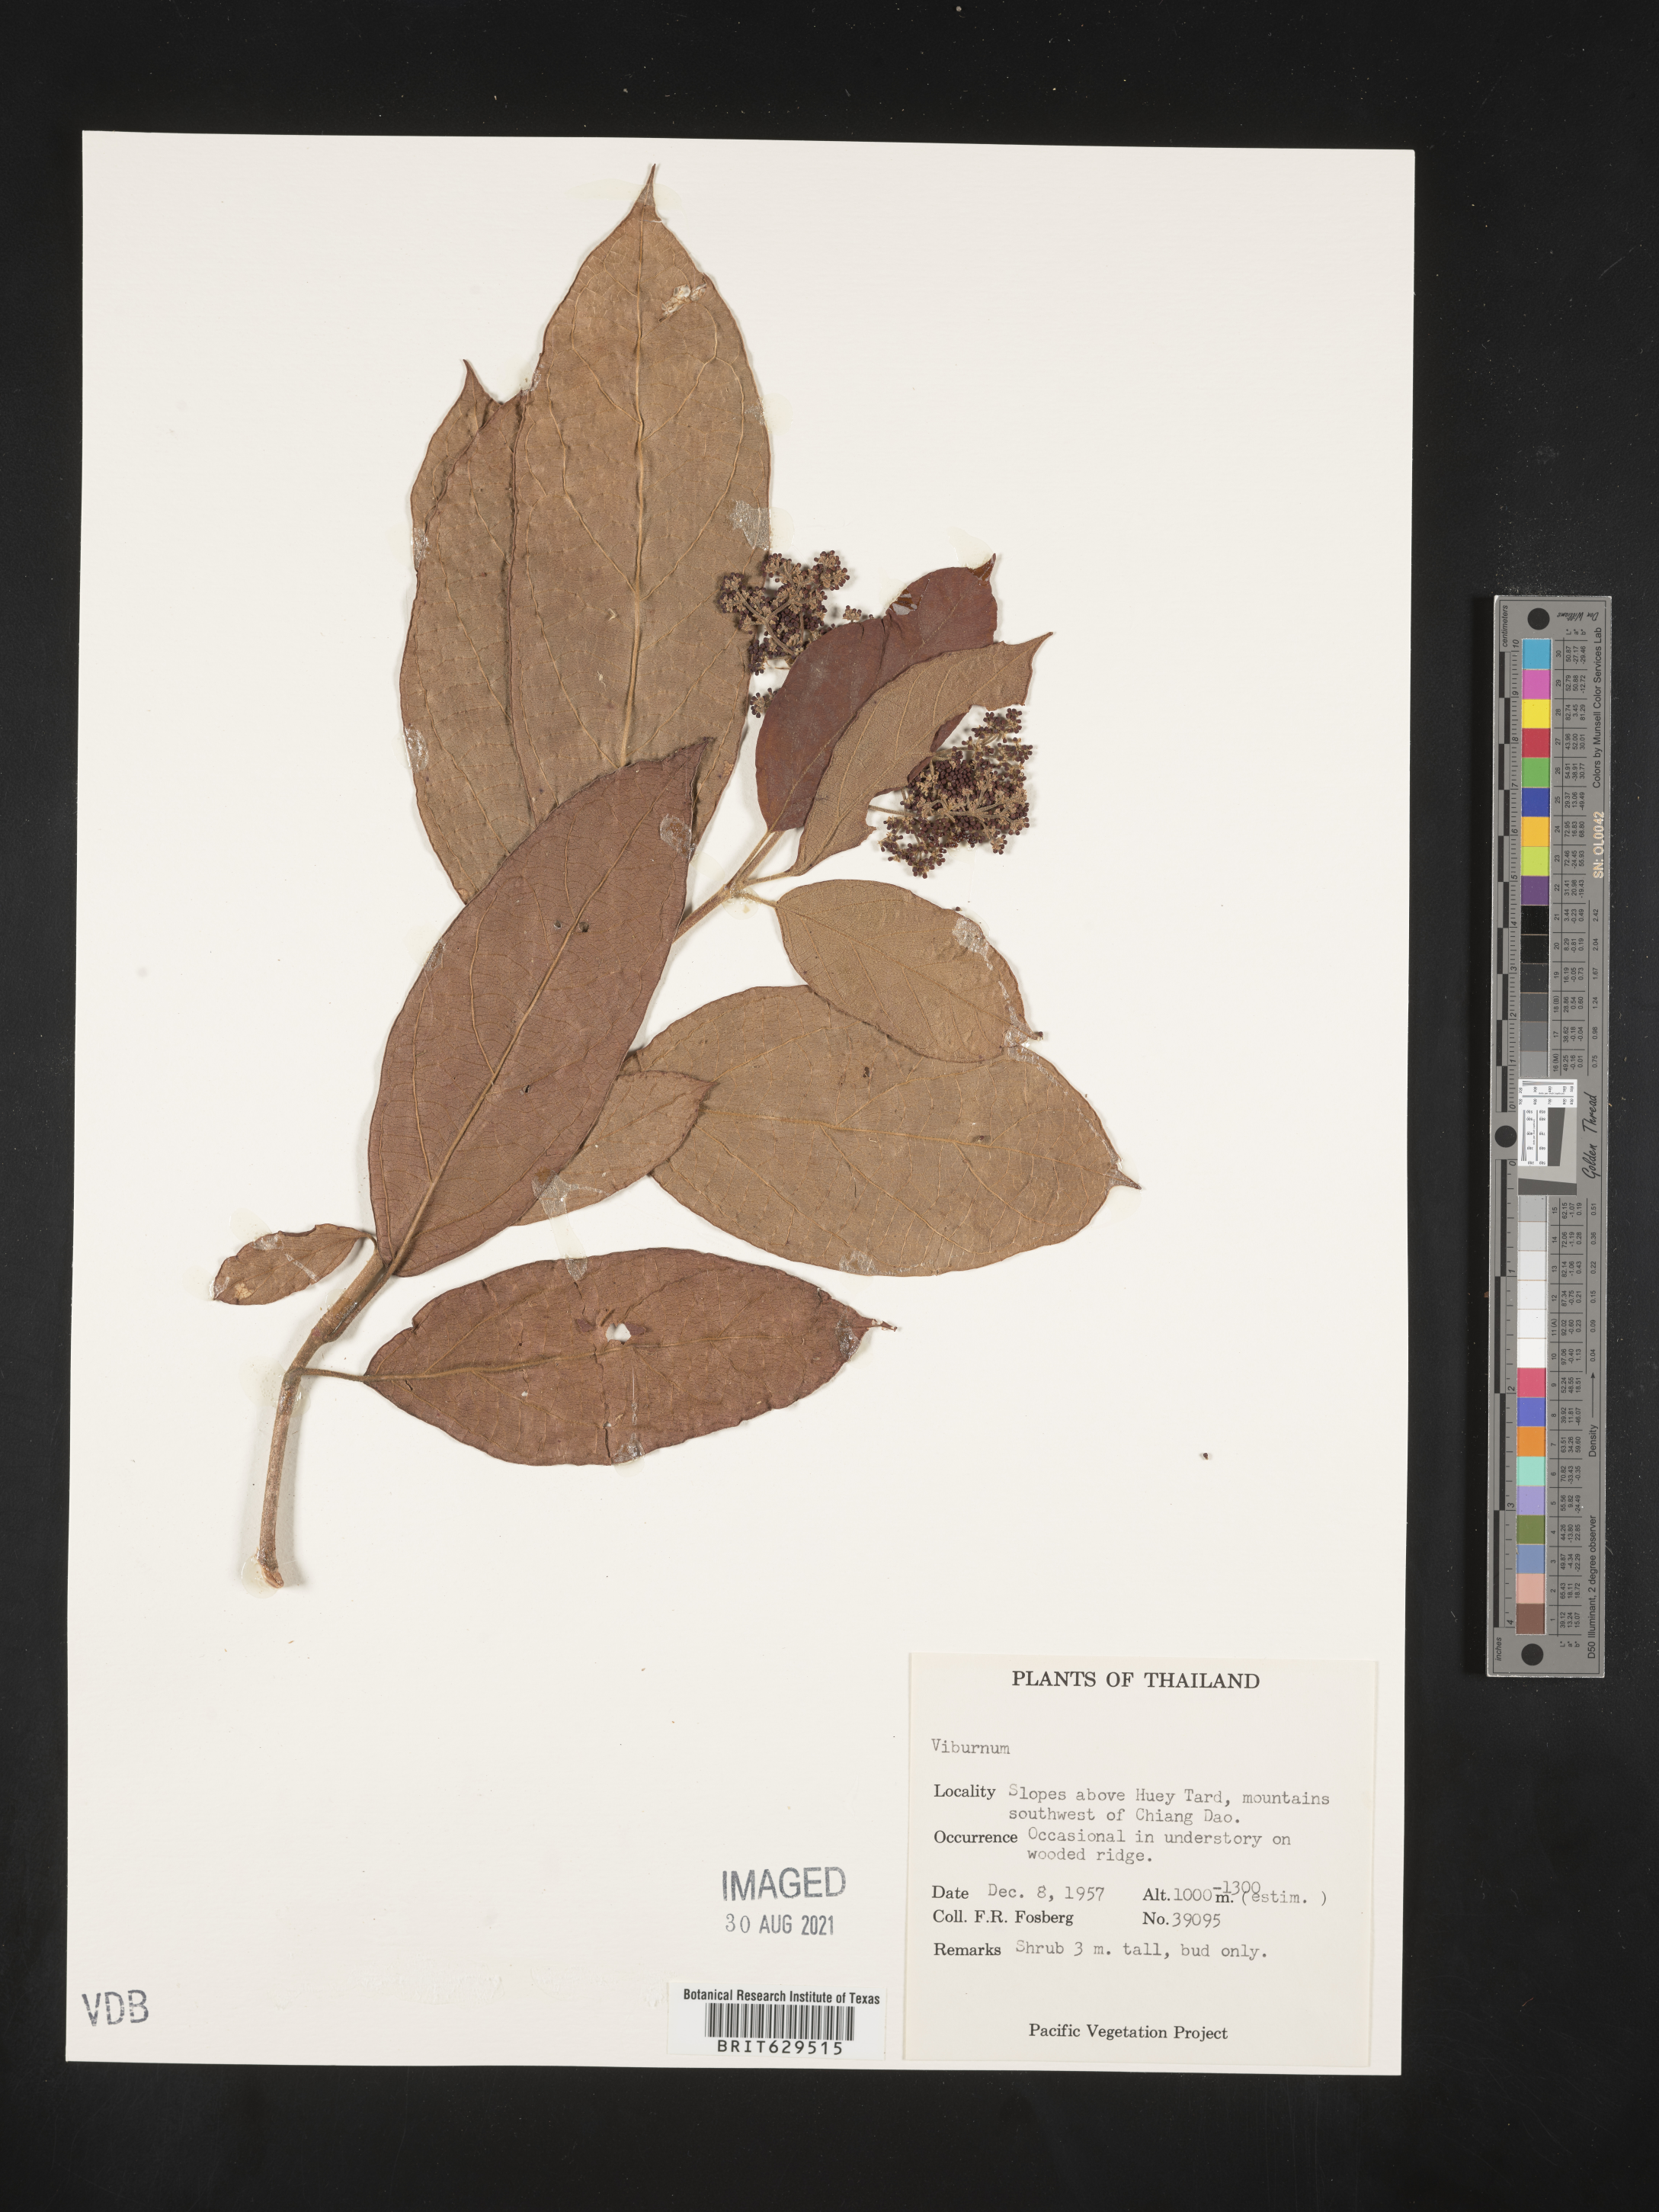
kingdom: Plantae
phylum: Tracheophyta
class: Magnoliopsida
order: Dipsacales
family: Viburnaceae
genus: Viburnum
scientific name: Viburnum
